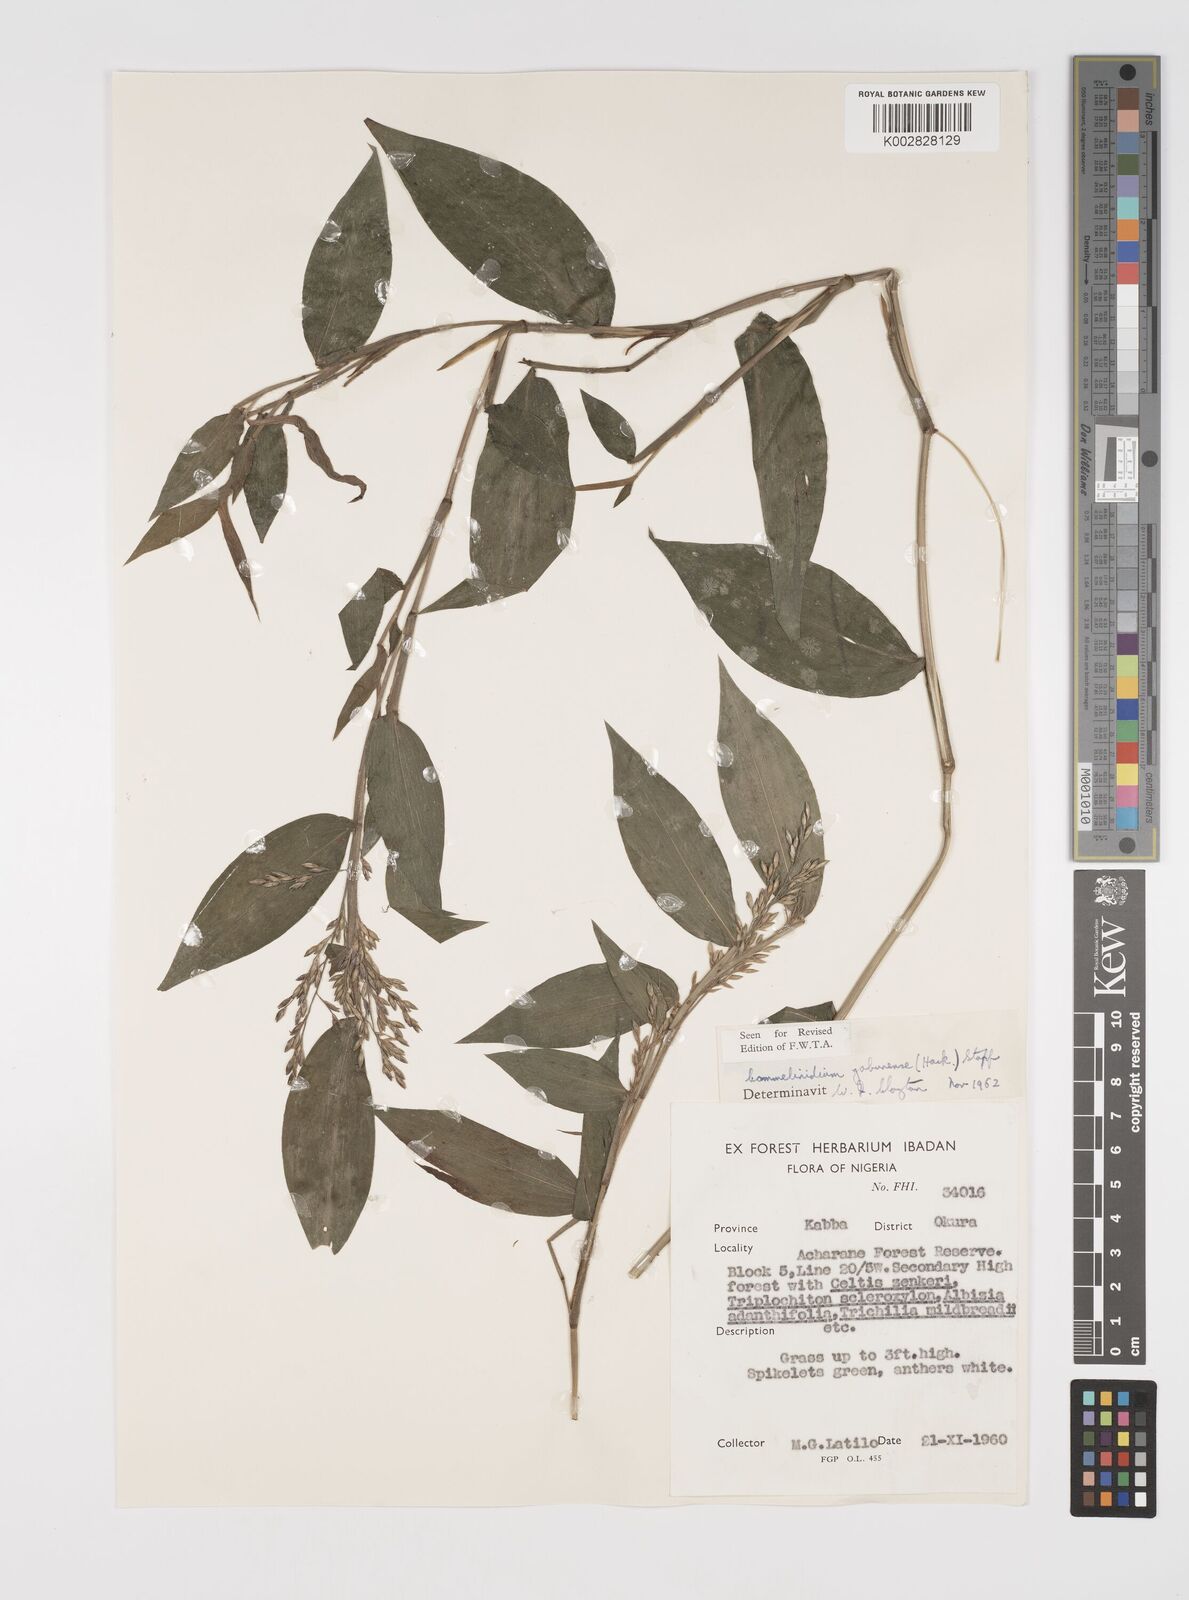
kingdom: Plantae
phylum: Tracheophyta
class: Liliopsida
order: Poales
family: Poaceae
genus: Acroceras
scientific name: Acroceras gabunense
